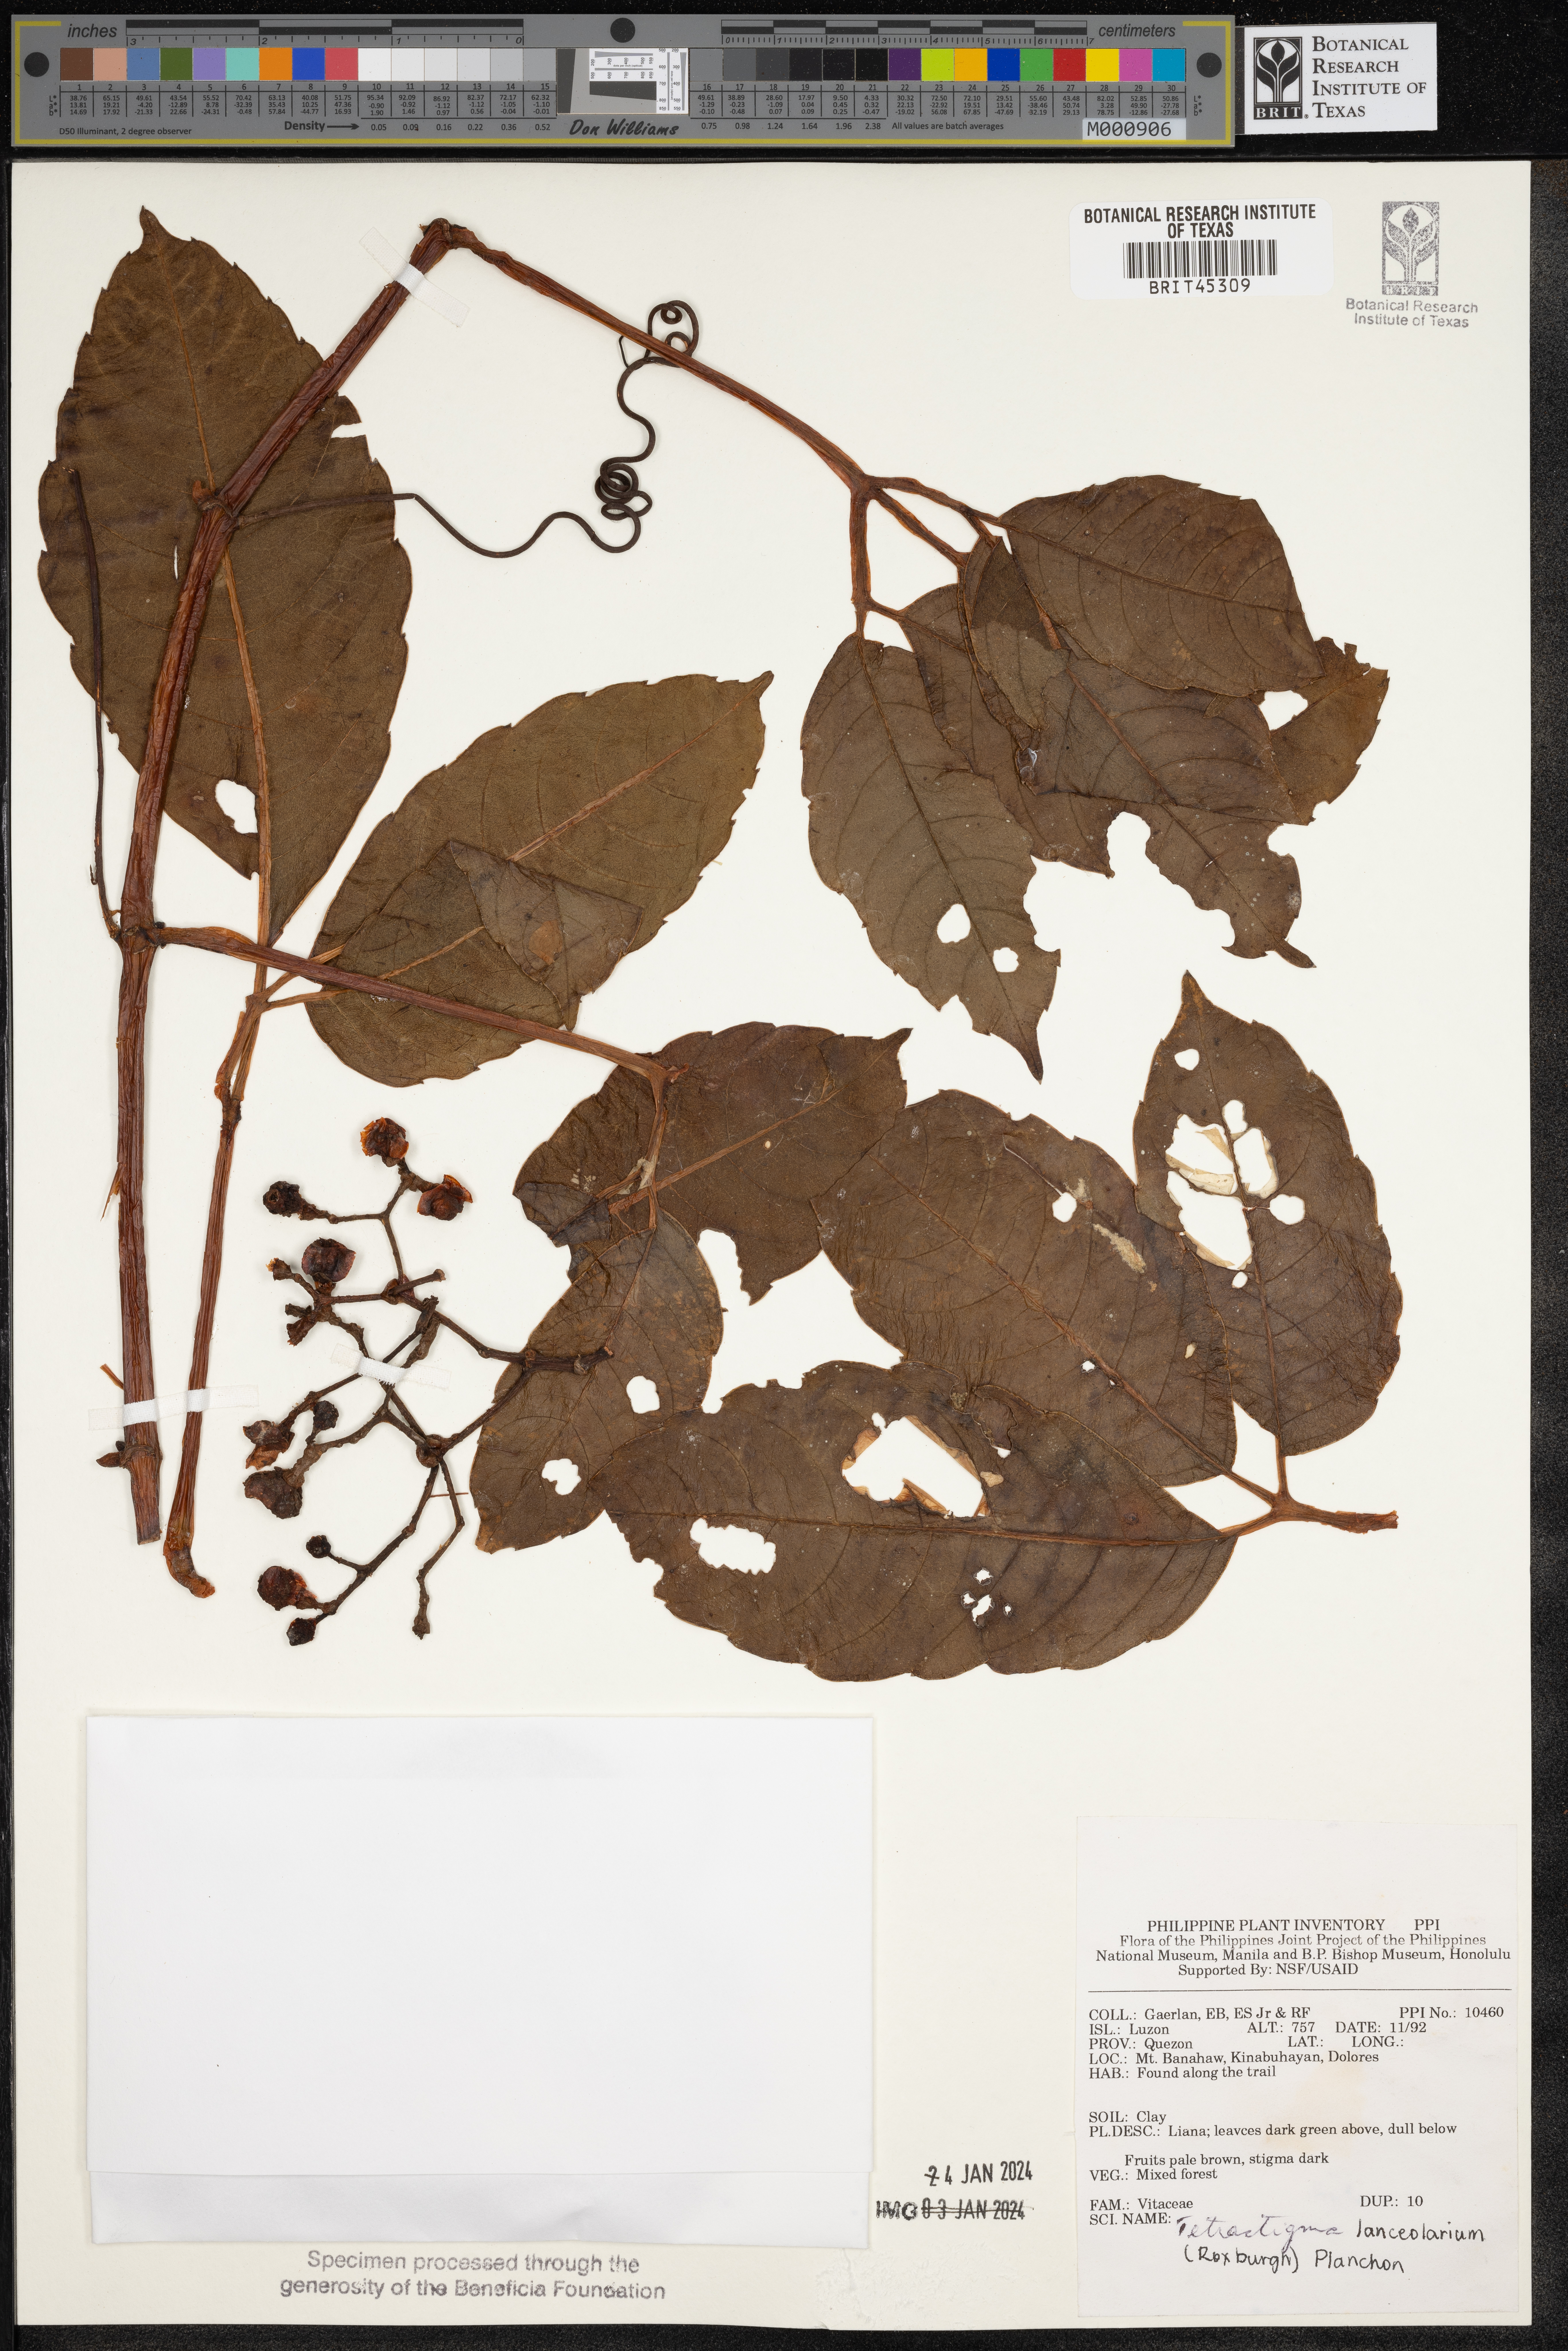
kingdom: Plantae
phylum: Tracheophyta
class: Magnoliopsida
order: Vitales
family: Vitaceae
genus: Tetrastigma
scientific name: Tetrastigma leucostaphylum
